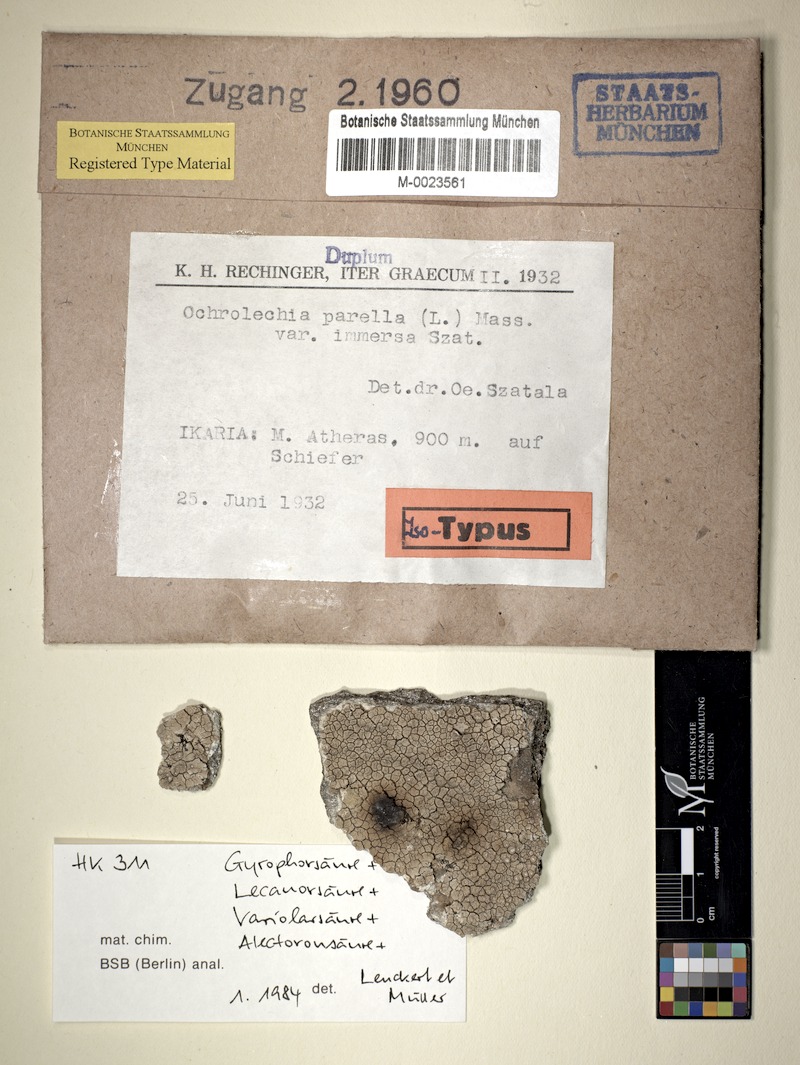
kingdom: Fungi
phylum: Ascomycota
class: Lecanoromycetes
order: Pertusariales
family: Ochrolechiaceae
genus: Ochrolechia
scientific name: Ochrolechia parella
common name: Crab's eye lichen
